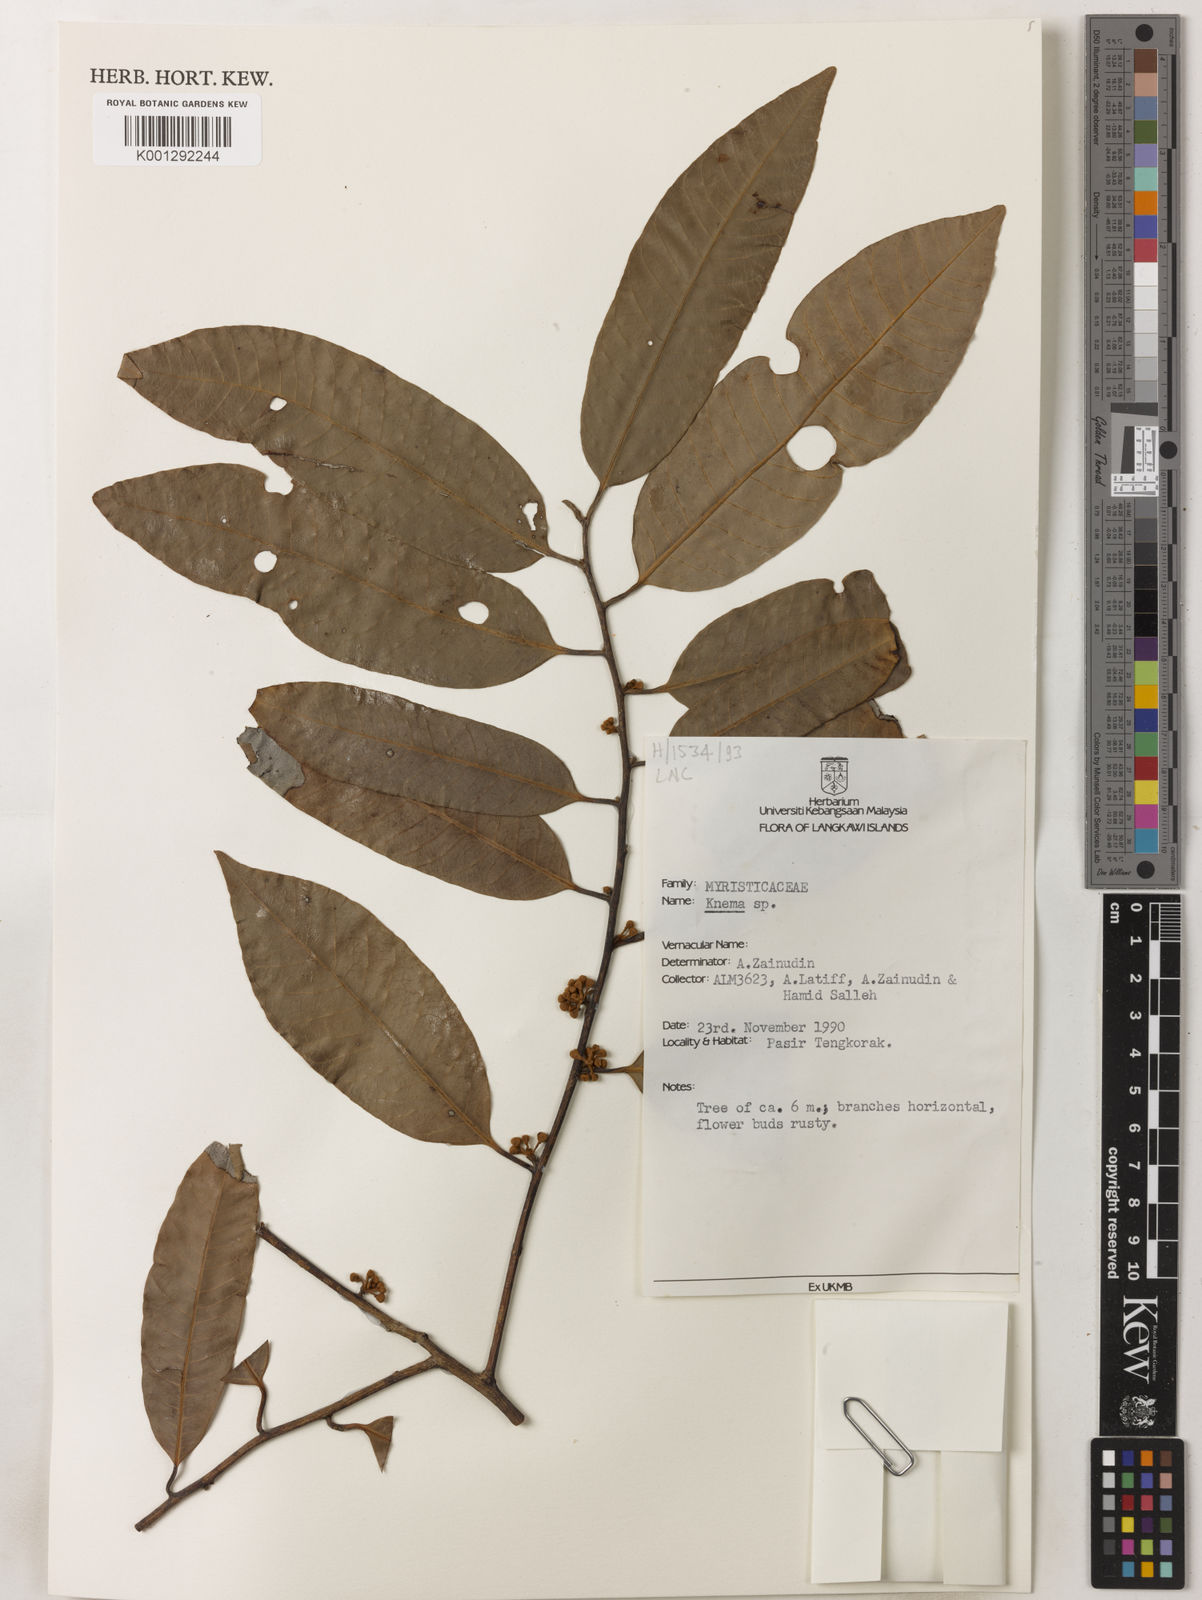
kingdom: Plantae
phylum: Tracheophyta
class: Magnoliopsida
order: Magnoliales
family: Myristicaceae
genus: Knema
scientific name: Knema
